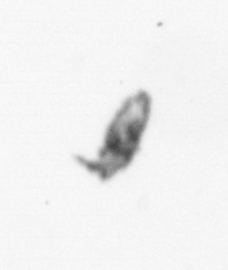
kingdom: Animalia
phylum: Arthropoda
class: Maxillopoda
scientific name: Maxillopoda
